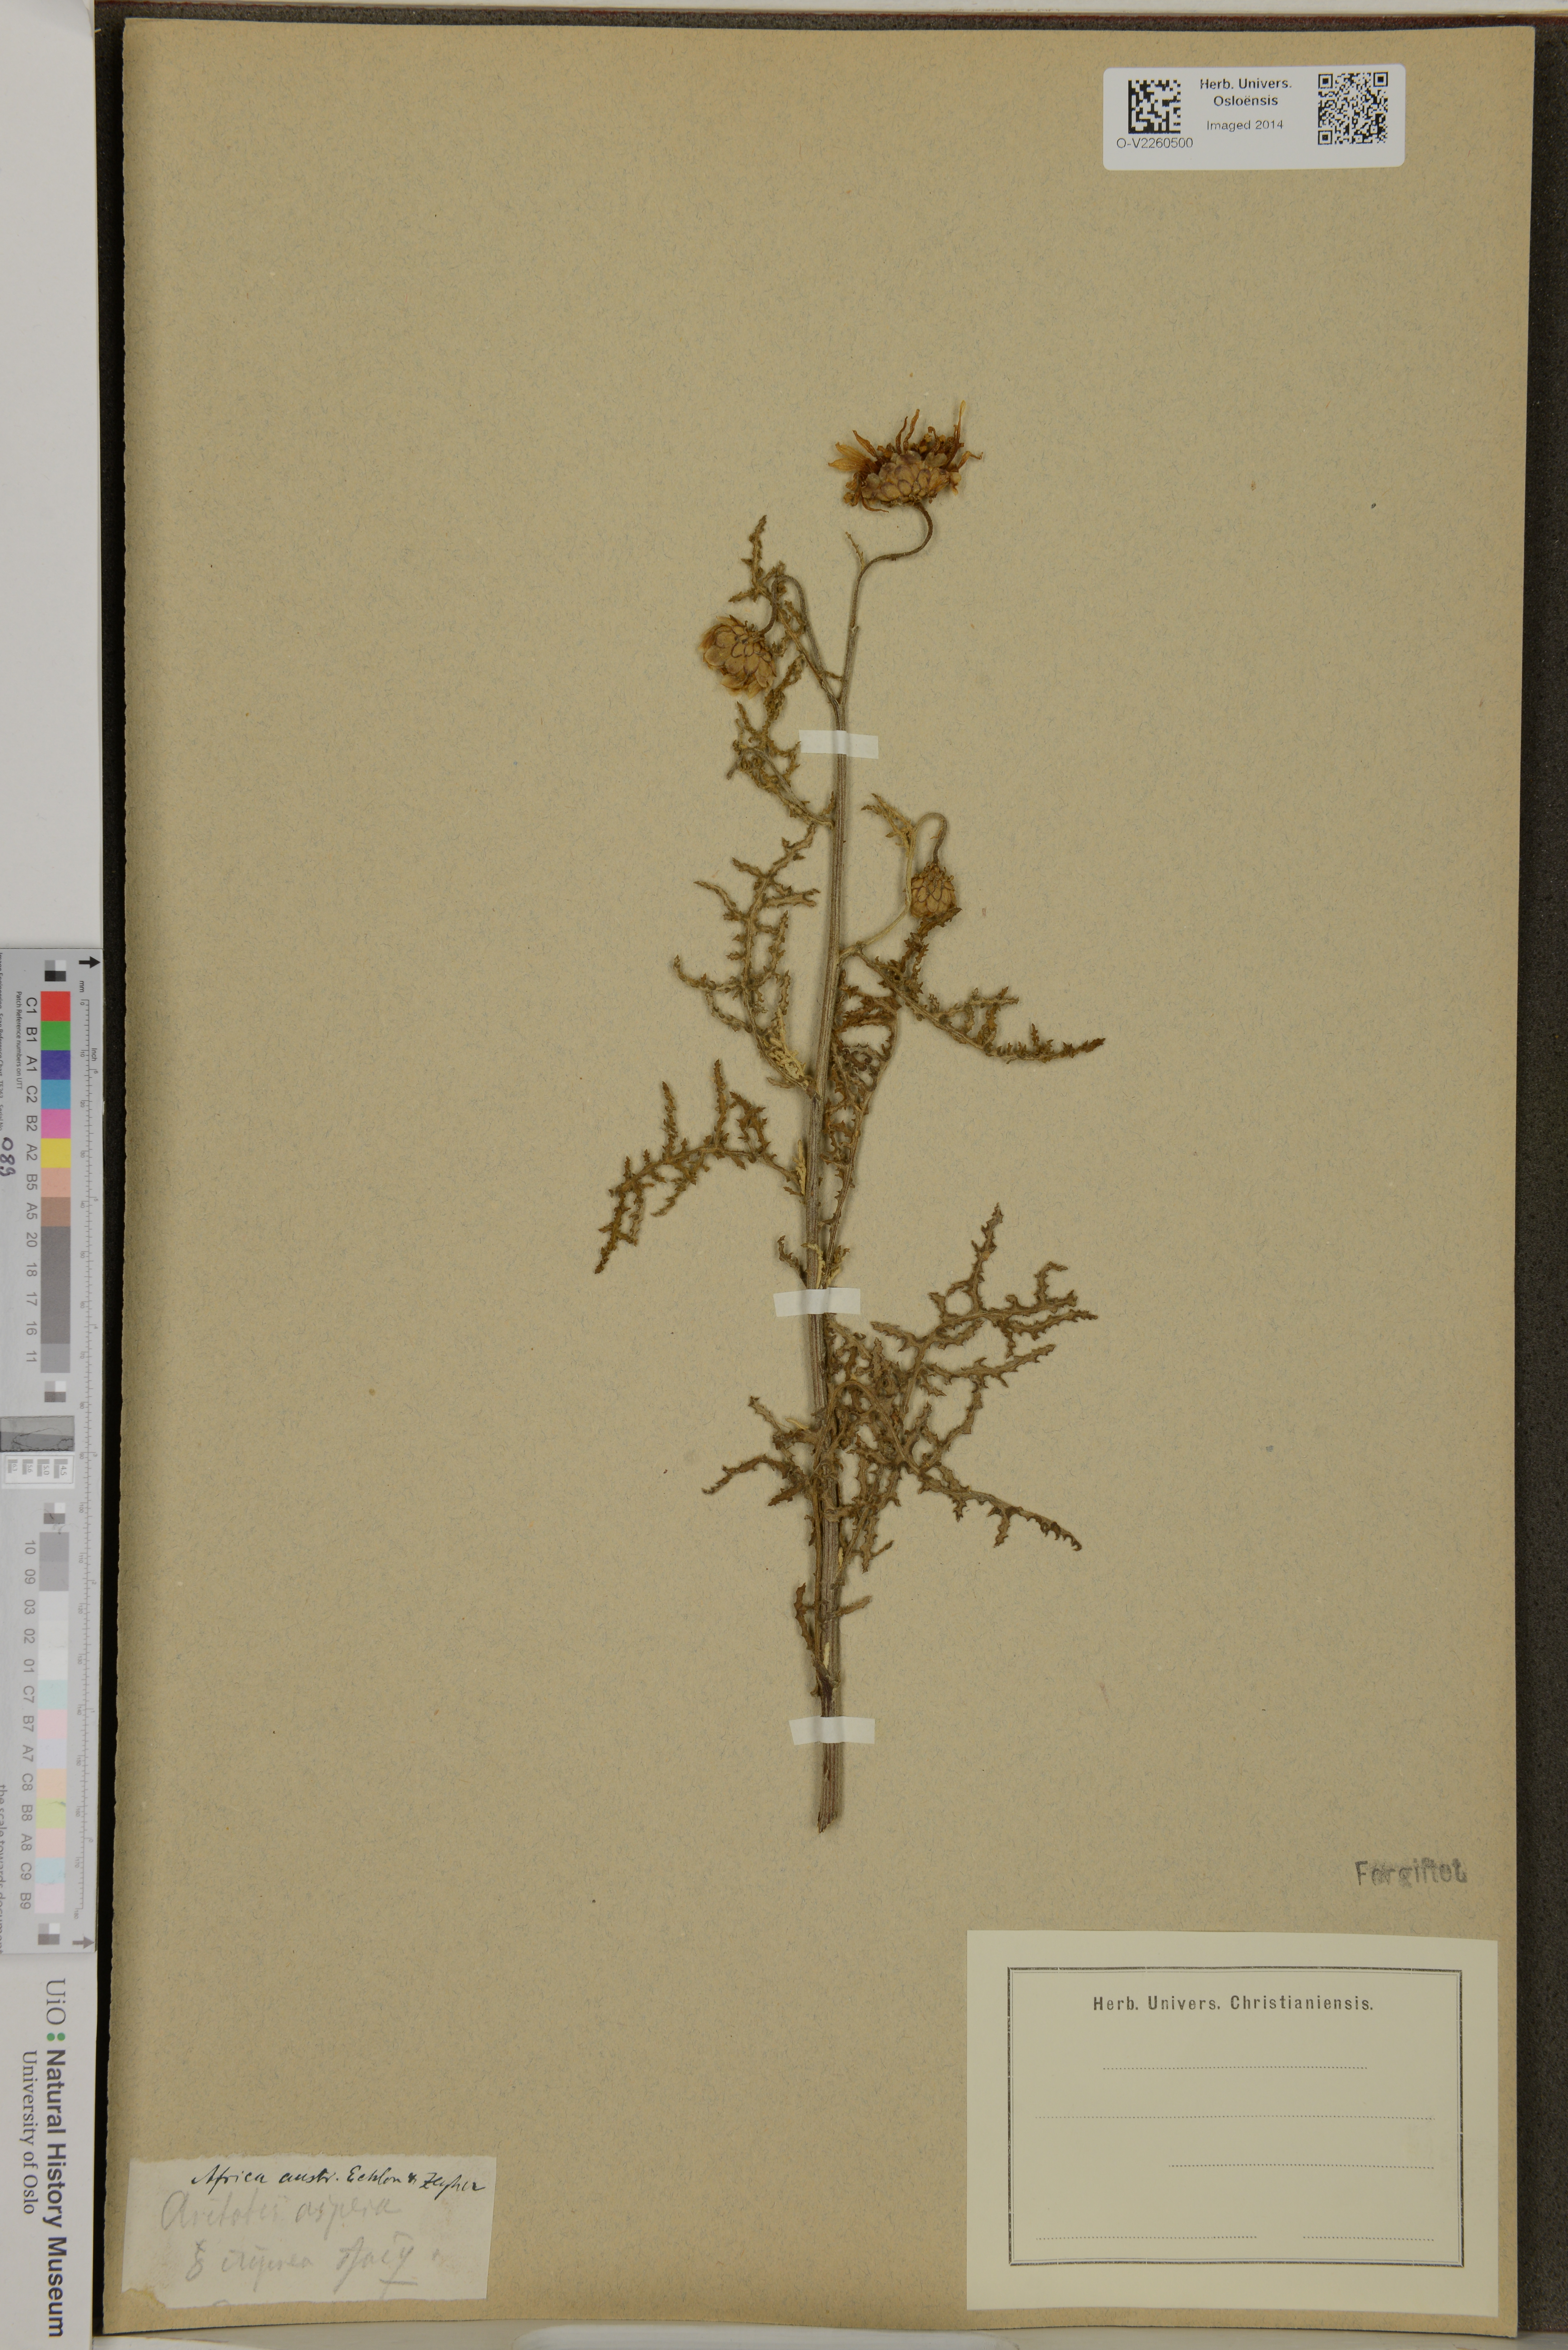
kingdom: Plantae
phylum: Tracheophyta
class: Magnoliopsida
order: Asterales
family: Asteraceae
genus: Arctotis
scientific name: Arctotis aspera
